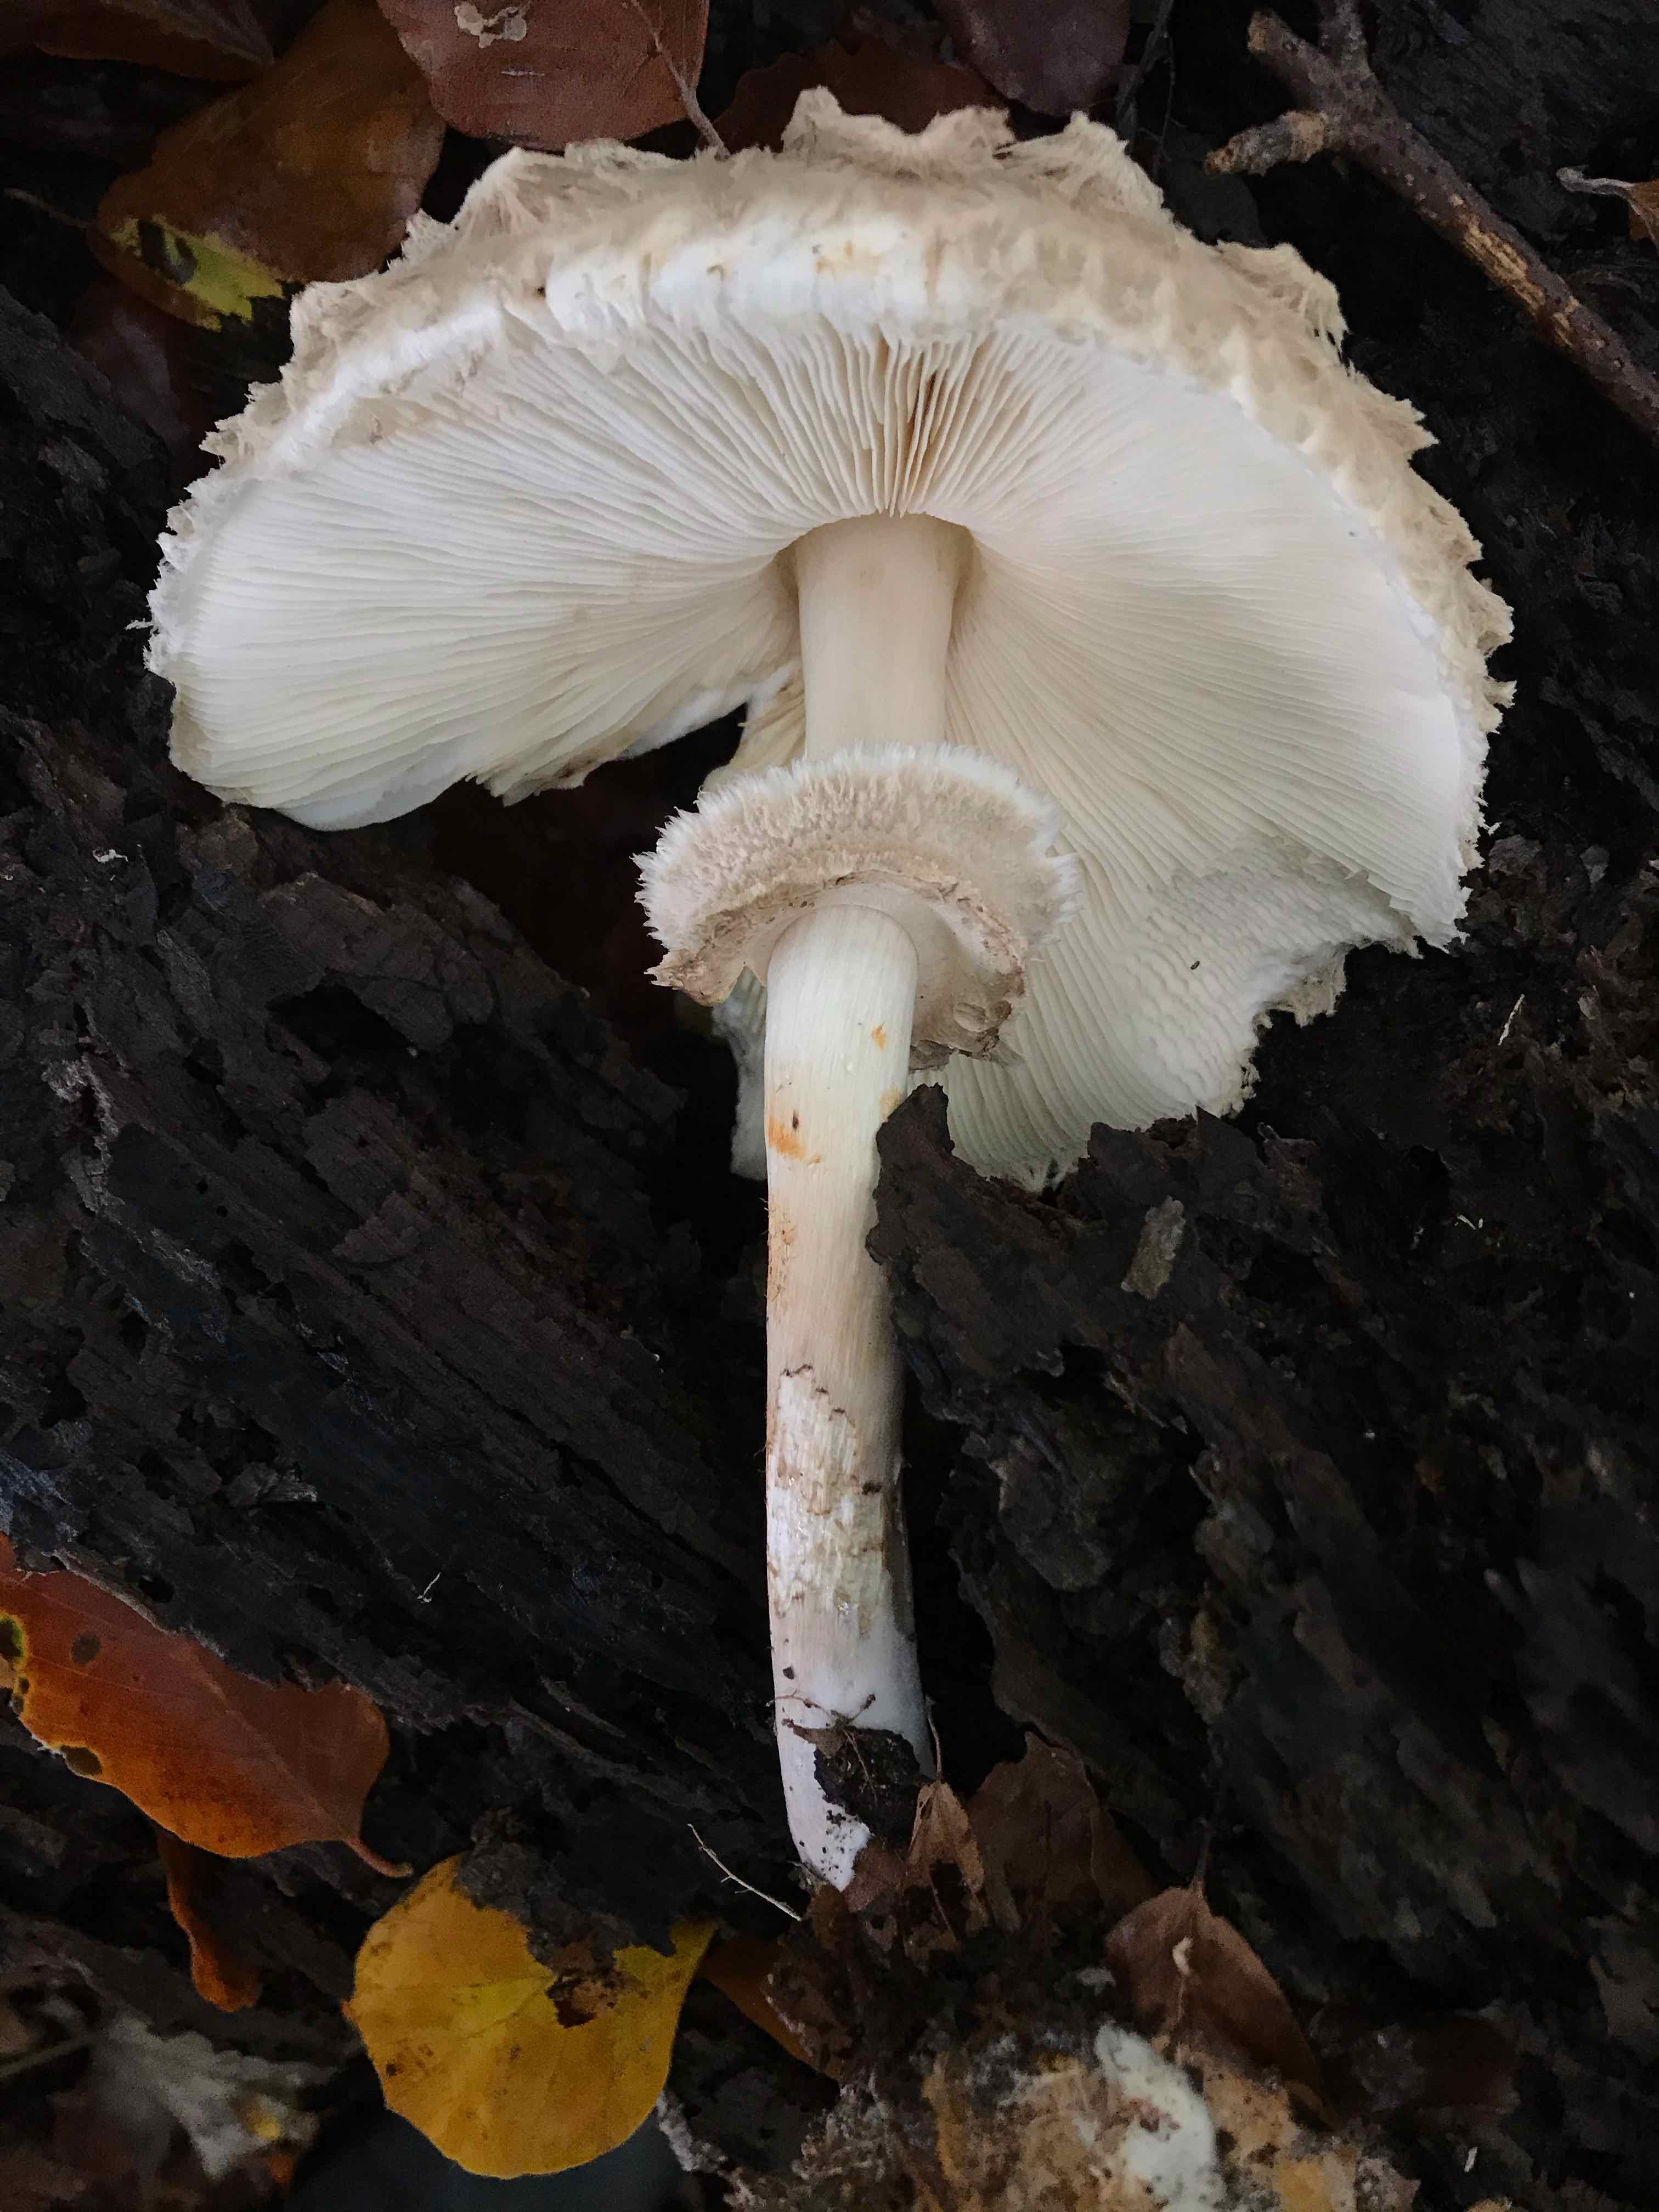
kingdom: Fungi
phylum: Basidiomycota
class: Agaricomycetes
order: Agaricales
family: Agaricaceae
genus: Chlorophyllum
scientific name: Chlorophyllum olivieri
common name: almindelig rabarberhat
